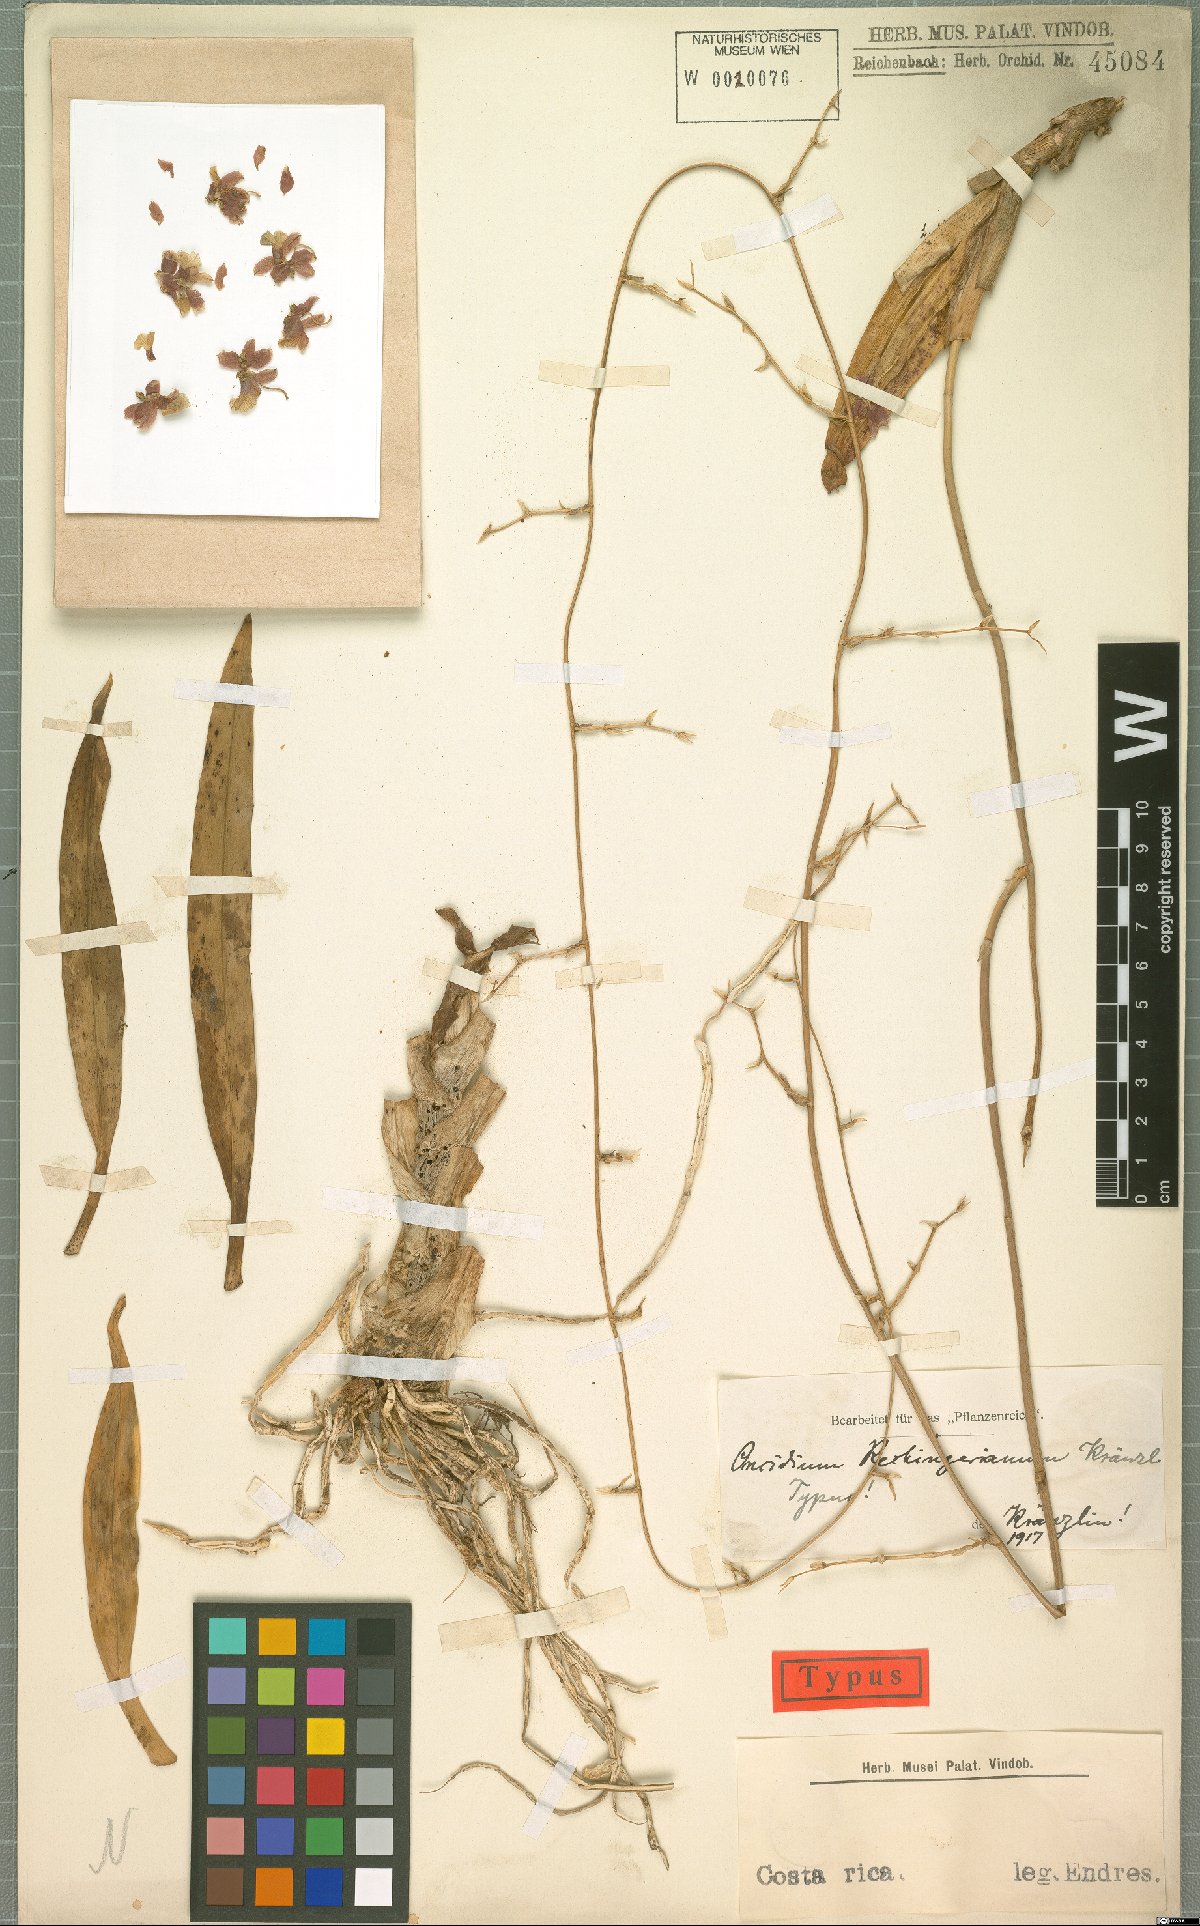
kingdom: Plantae
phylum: Tracheophyta
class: Liliopsida
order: Asparagales
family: Orchidaceae
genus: Oncidium
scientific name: Oncidium dichromaticum
